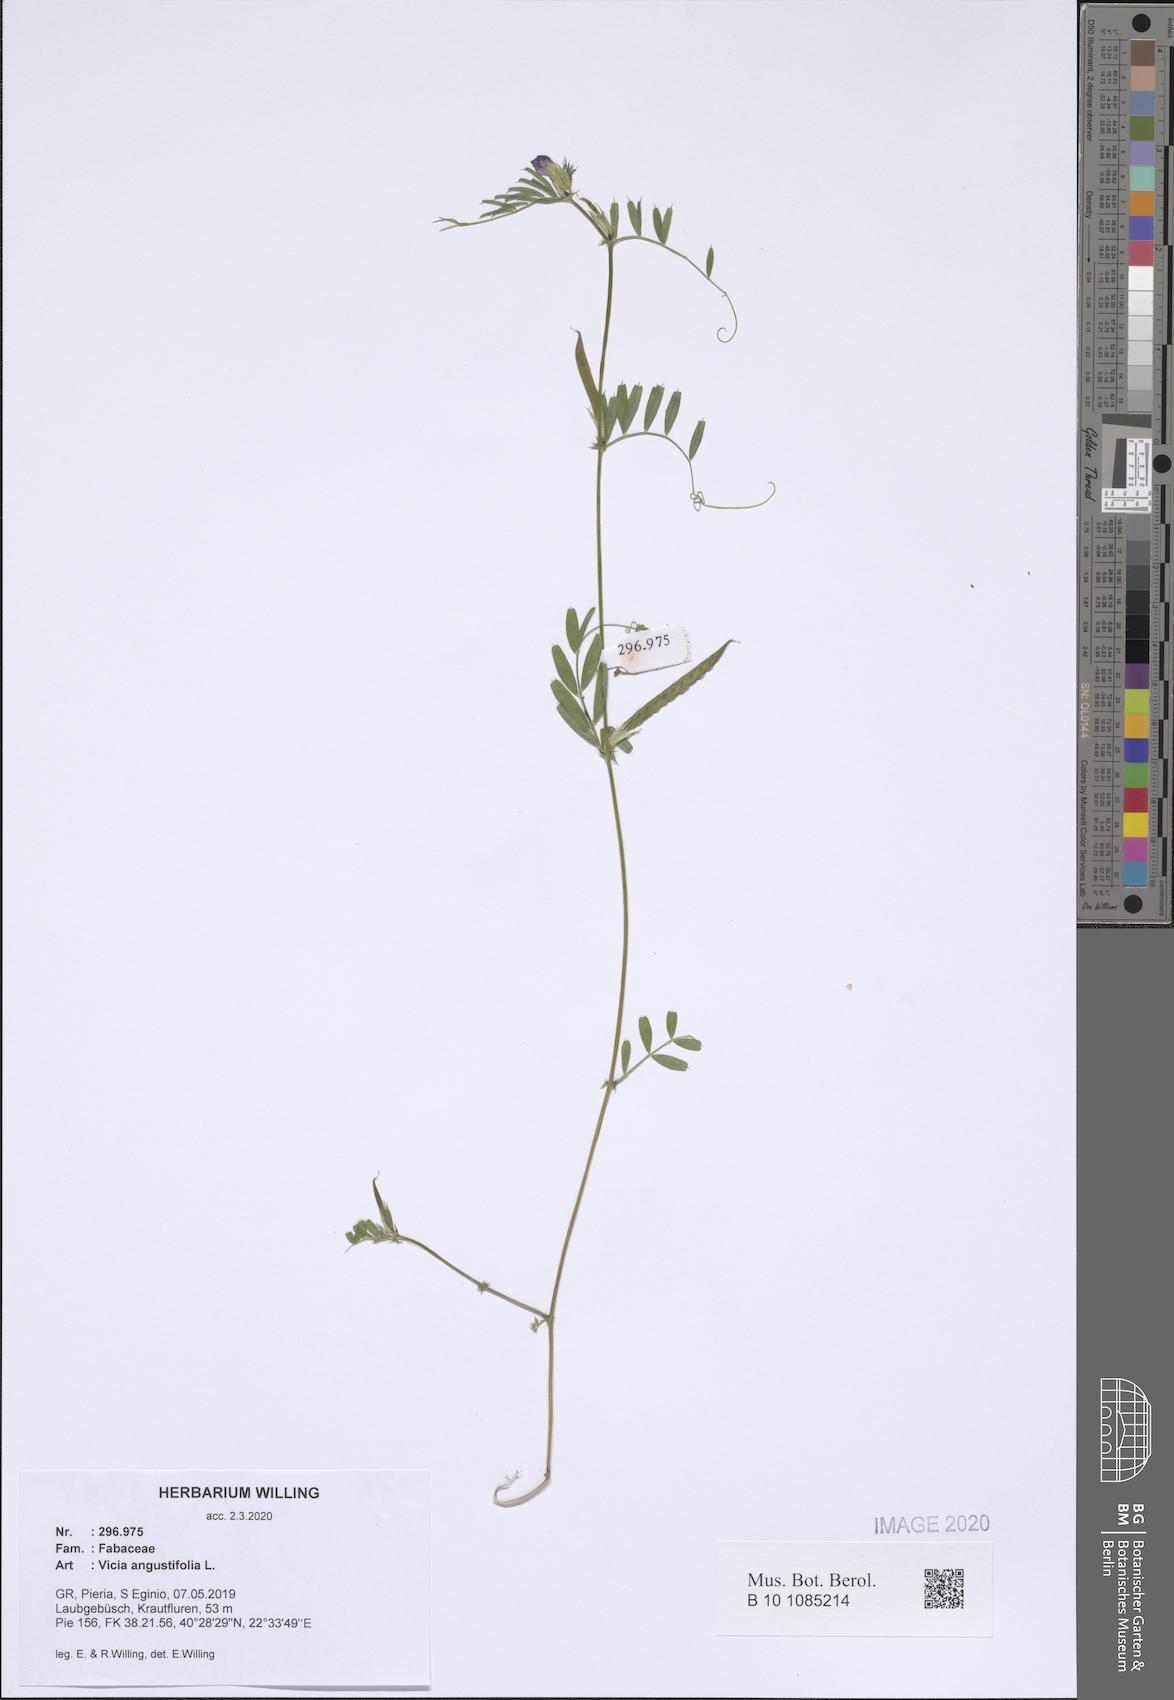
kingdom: Plantae
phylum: Tracheophyta
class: Magnoliopsida
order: Fabales
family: Fabaceae
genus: Vicia
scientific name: Vicia sativa
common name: Garden vetch
